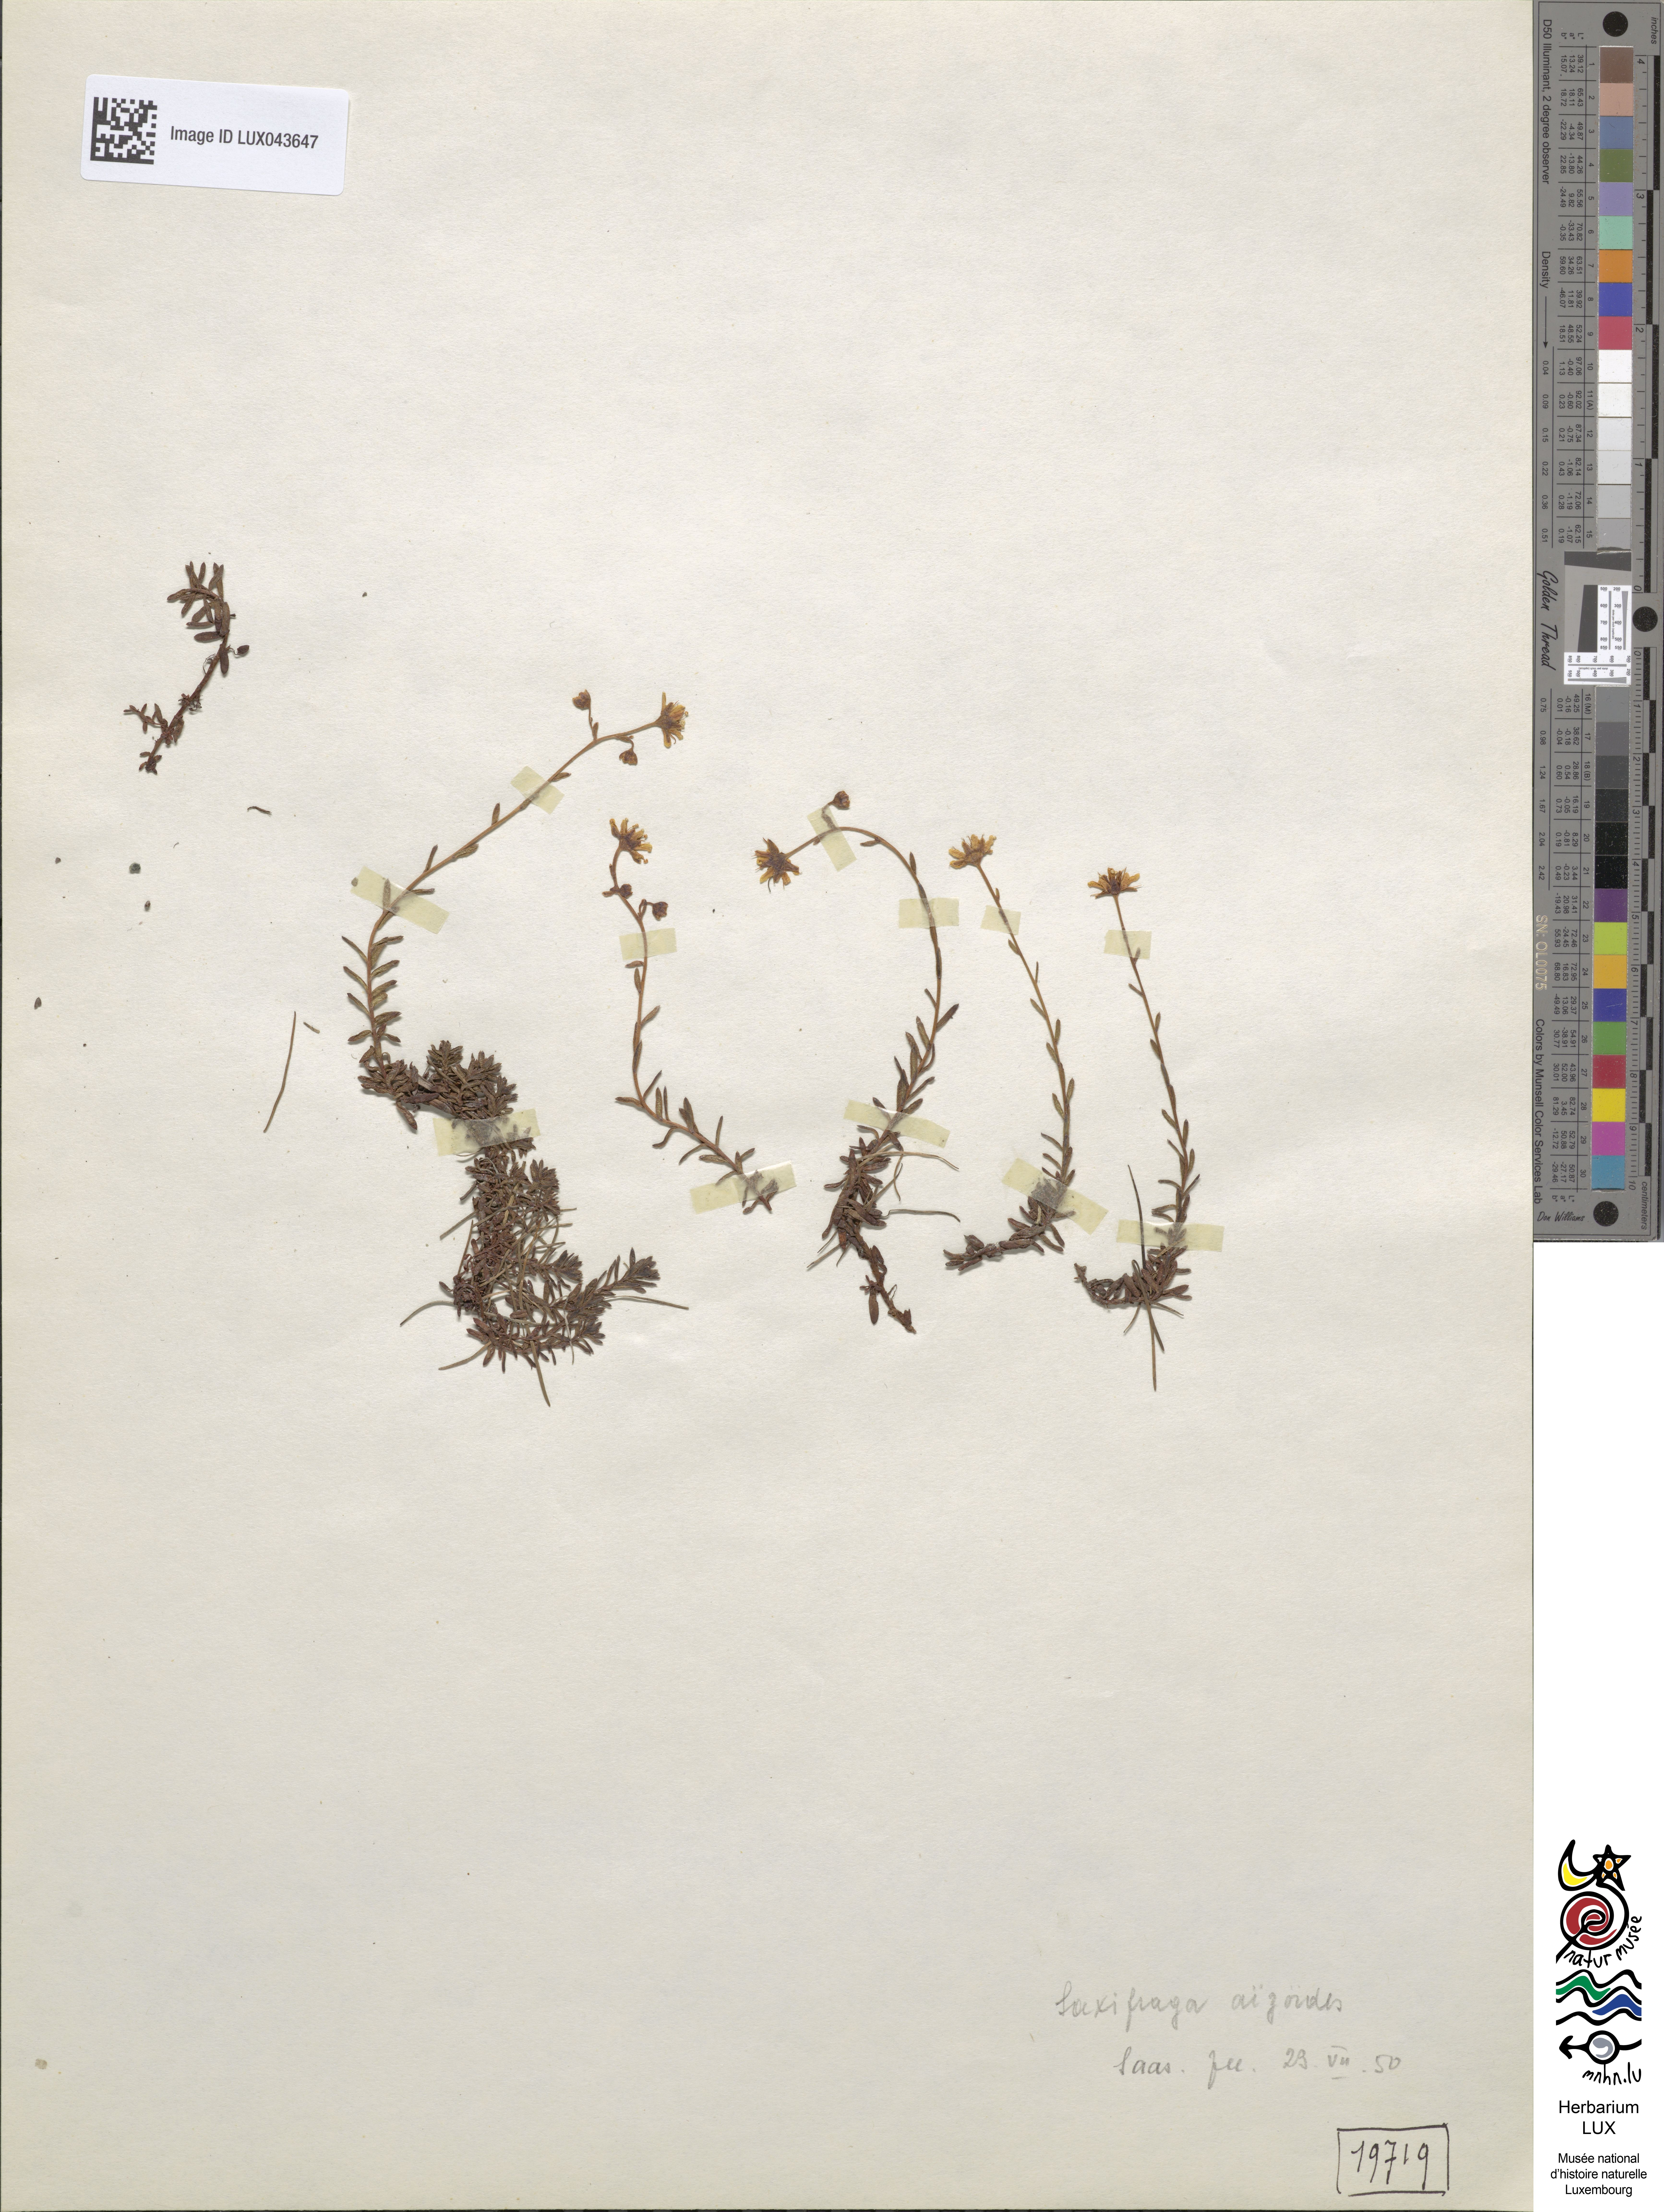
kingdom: Plantae
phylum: Tracheophyta
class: Magnoliopsida
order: Saxifragales
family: Saxifragaceae
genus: Saxifraga
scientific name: Saxifraga aizoides
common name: Yellow mountain saxifrage
